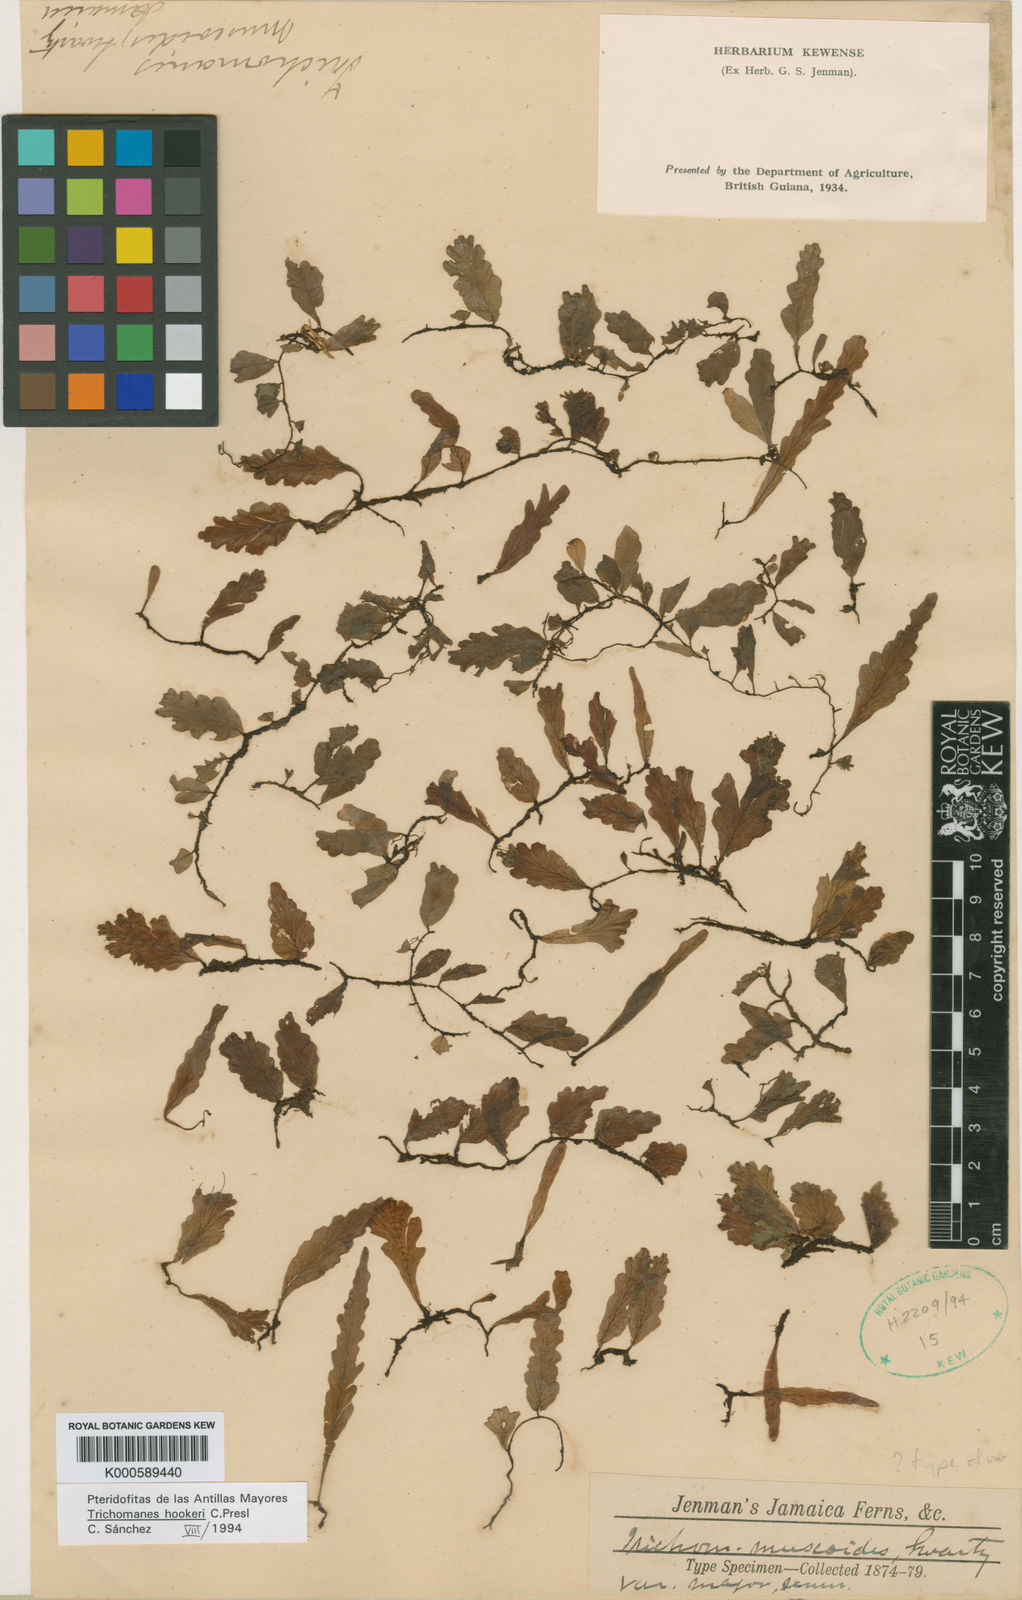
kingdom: Plantae
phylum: Tracheophyta
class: Polypodiopsida
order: Hymenophyllales
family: Hymenophyllaceae
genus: Didymoglossum
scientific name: Didymoglossum berteroanum
